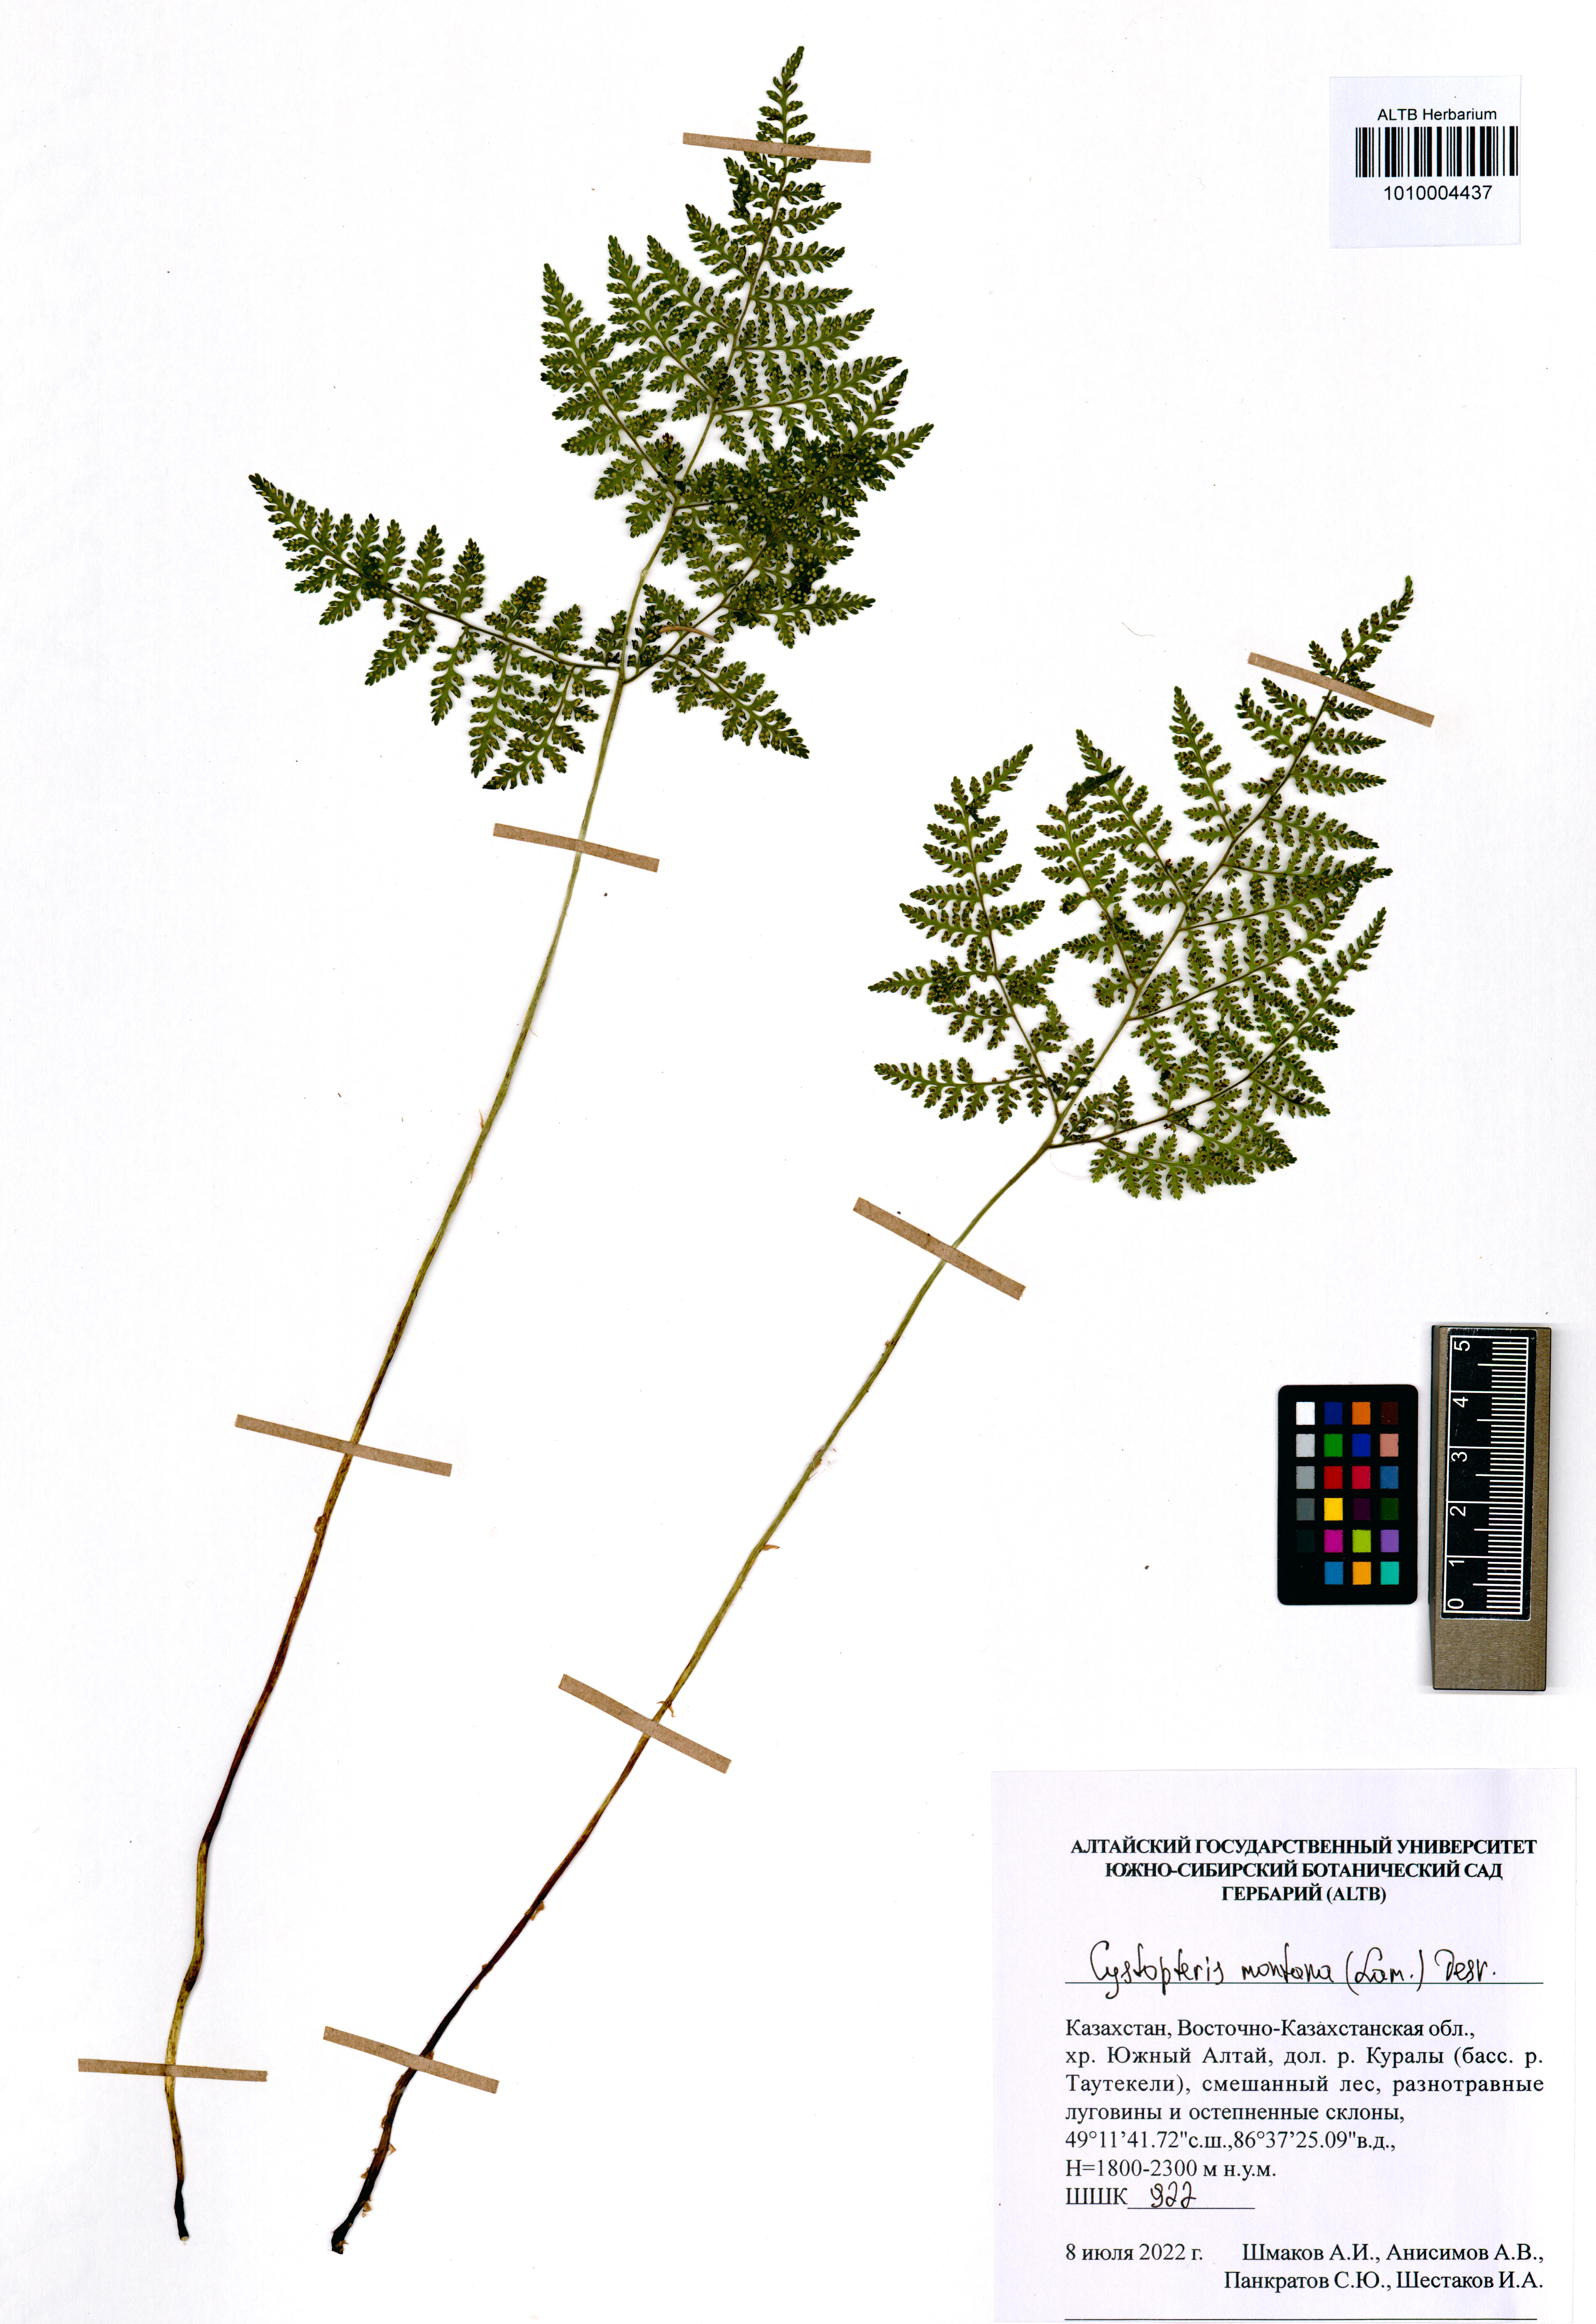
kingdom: Plantae
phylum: Tracheophyta
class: Polypodiopsida
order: Polypodiales
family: Cystopteridaceae
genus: Cystopteris
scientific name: Cystopteris montana
